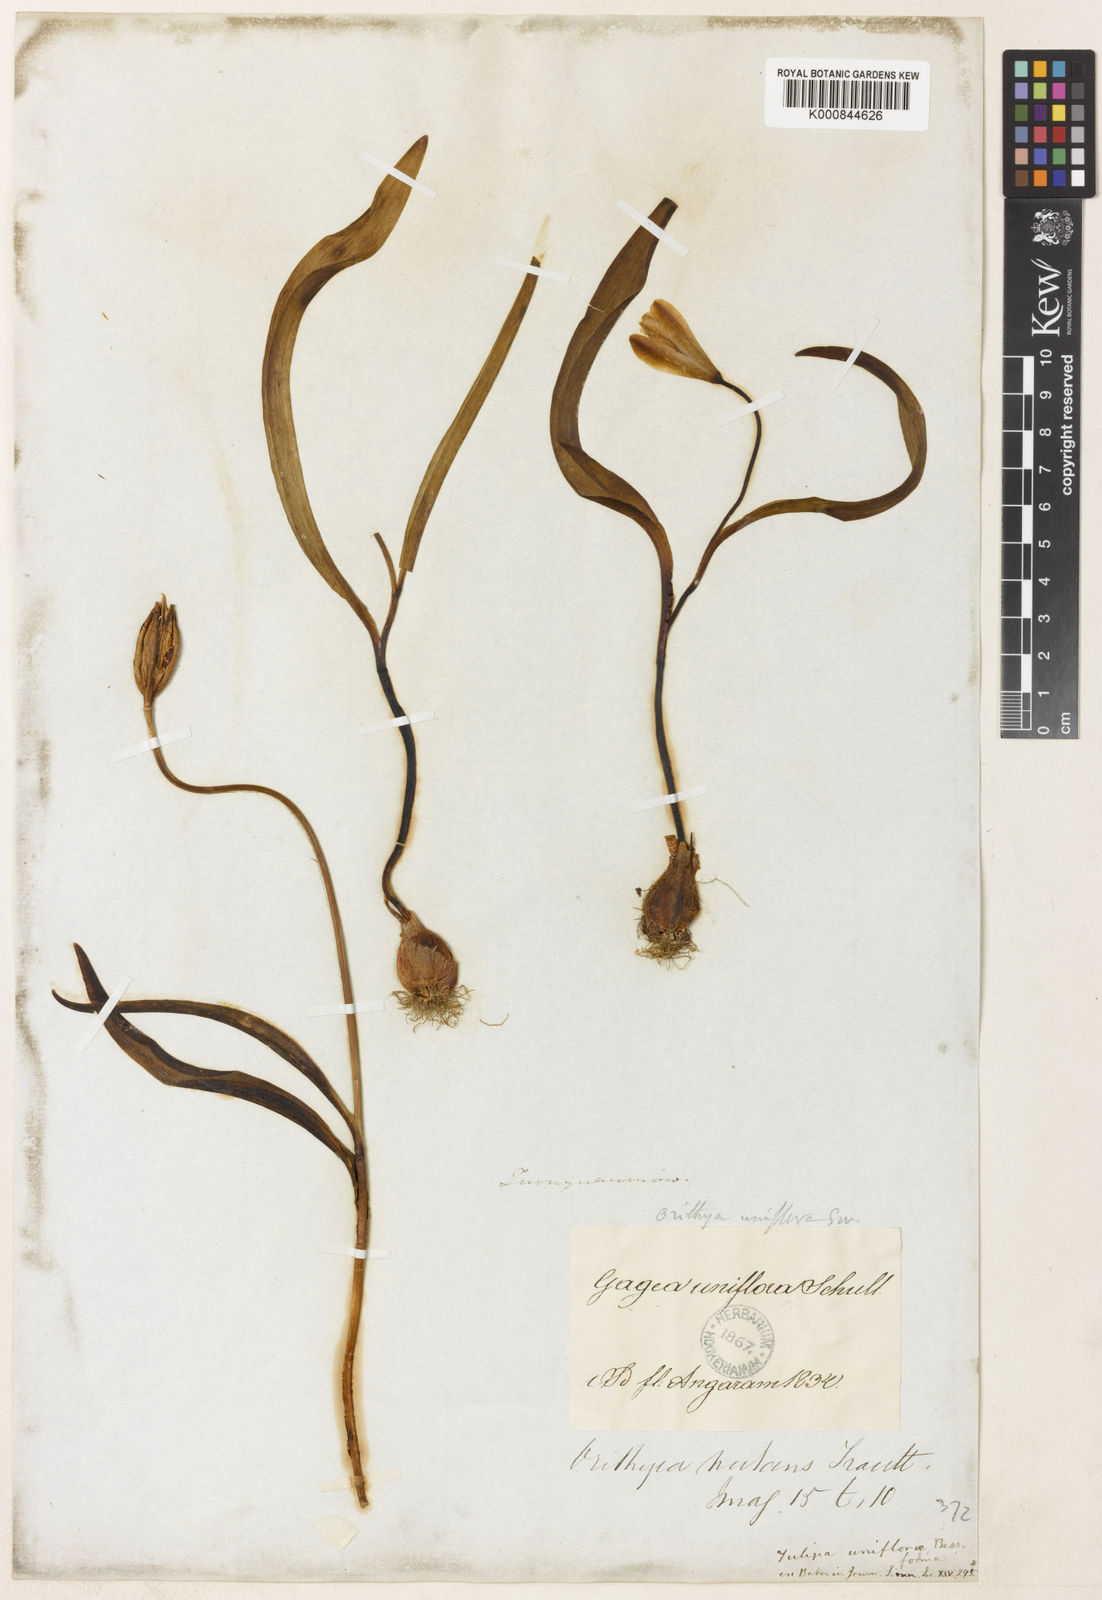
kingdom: Plantae
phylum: Tracheophyta
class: Liliopsida
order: Liliales
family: Liliaceae
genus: Tulipa
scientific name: Tulipa uniflora
